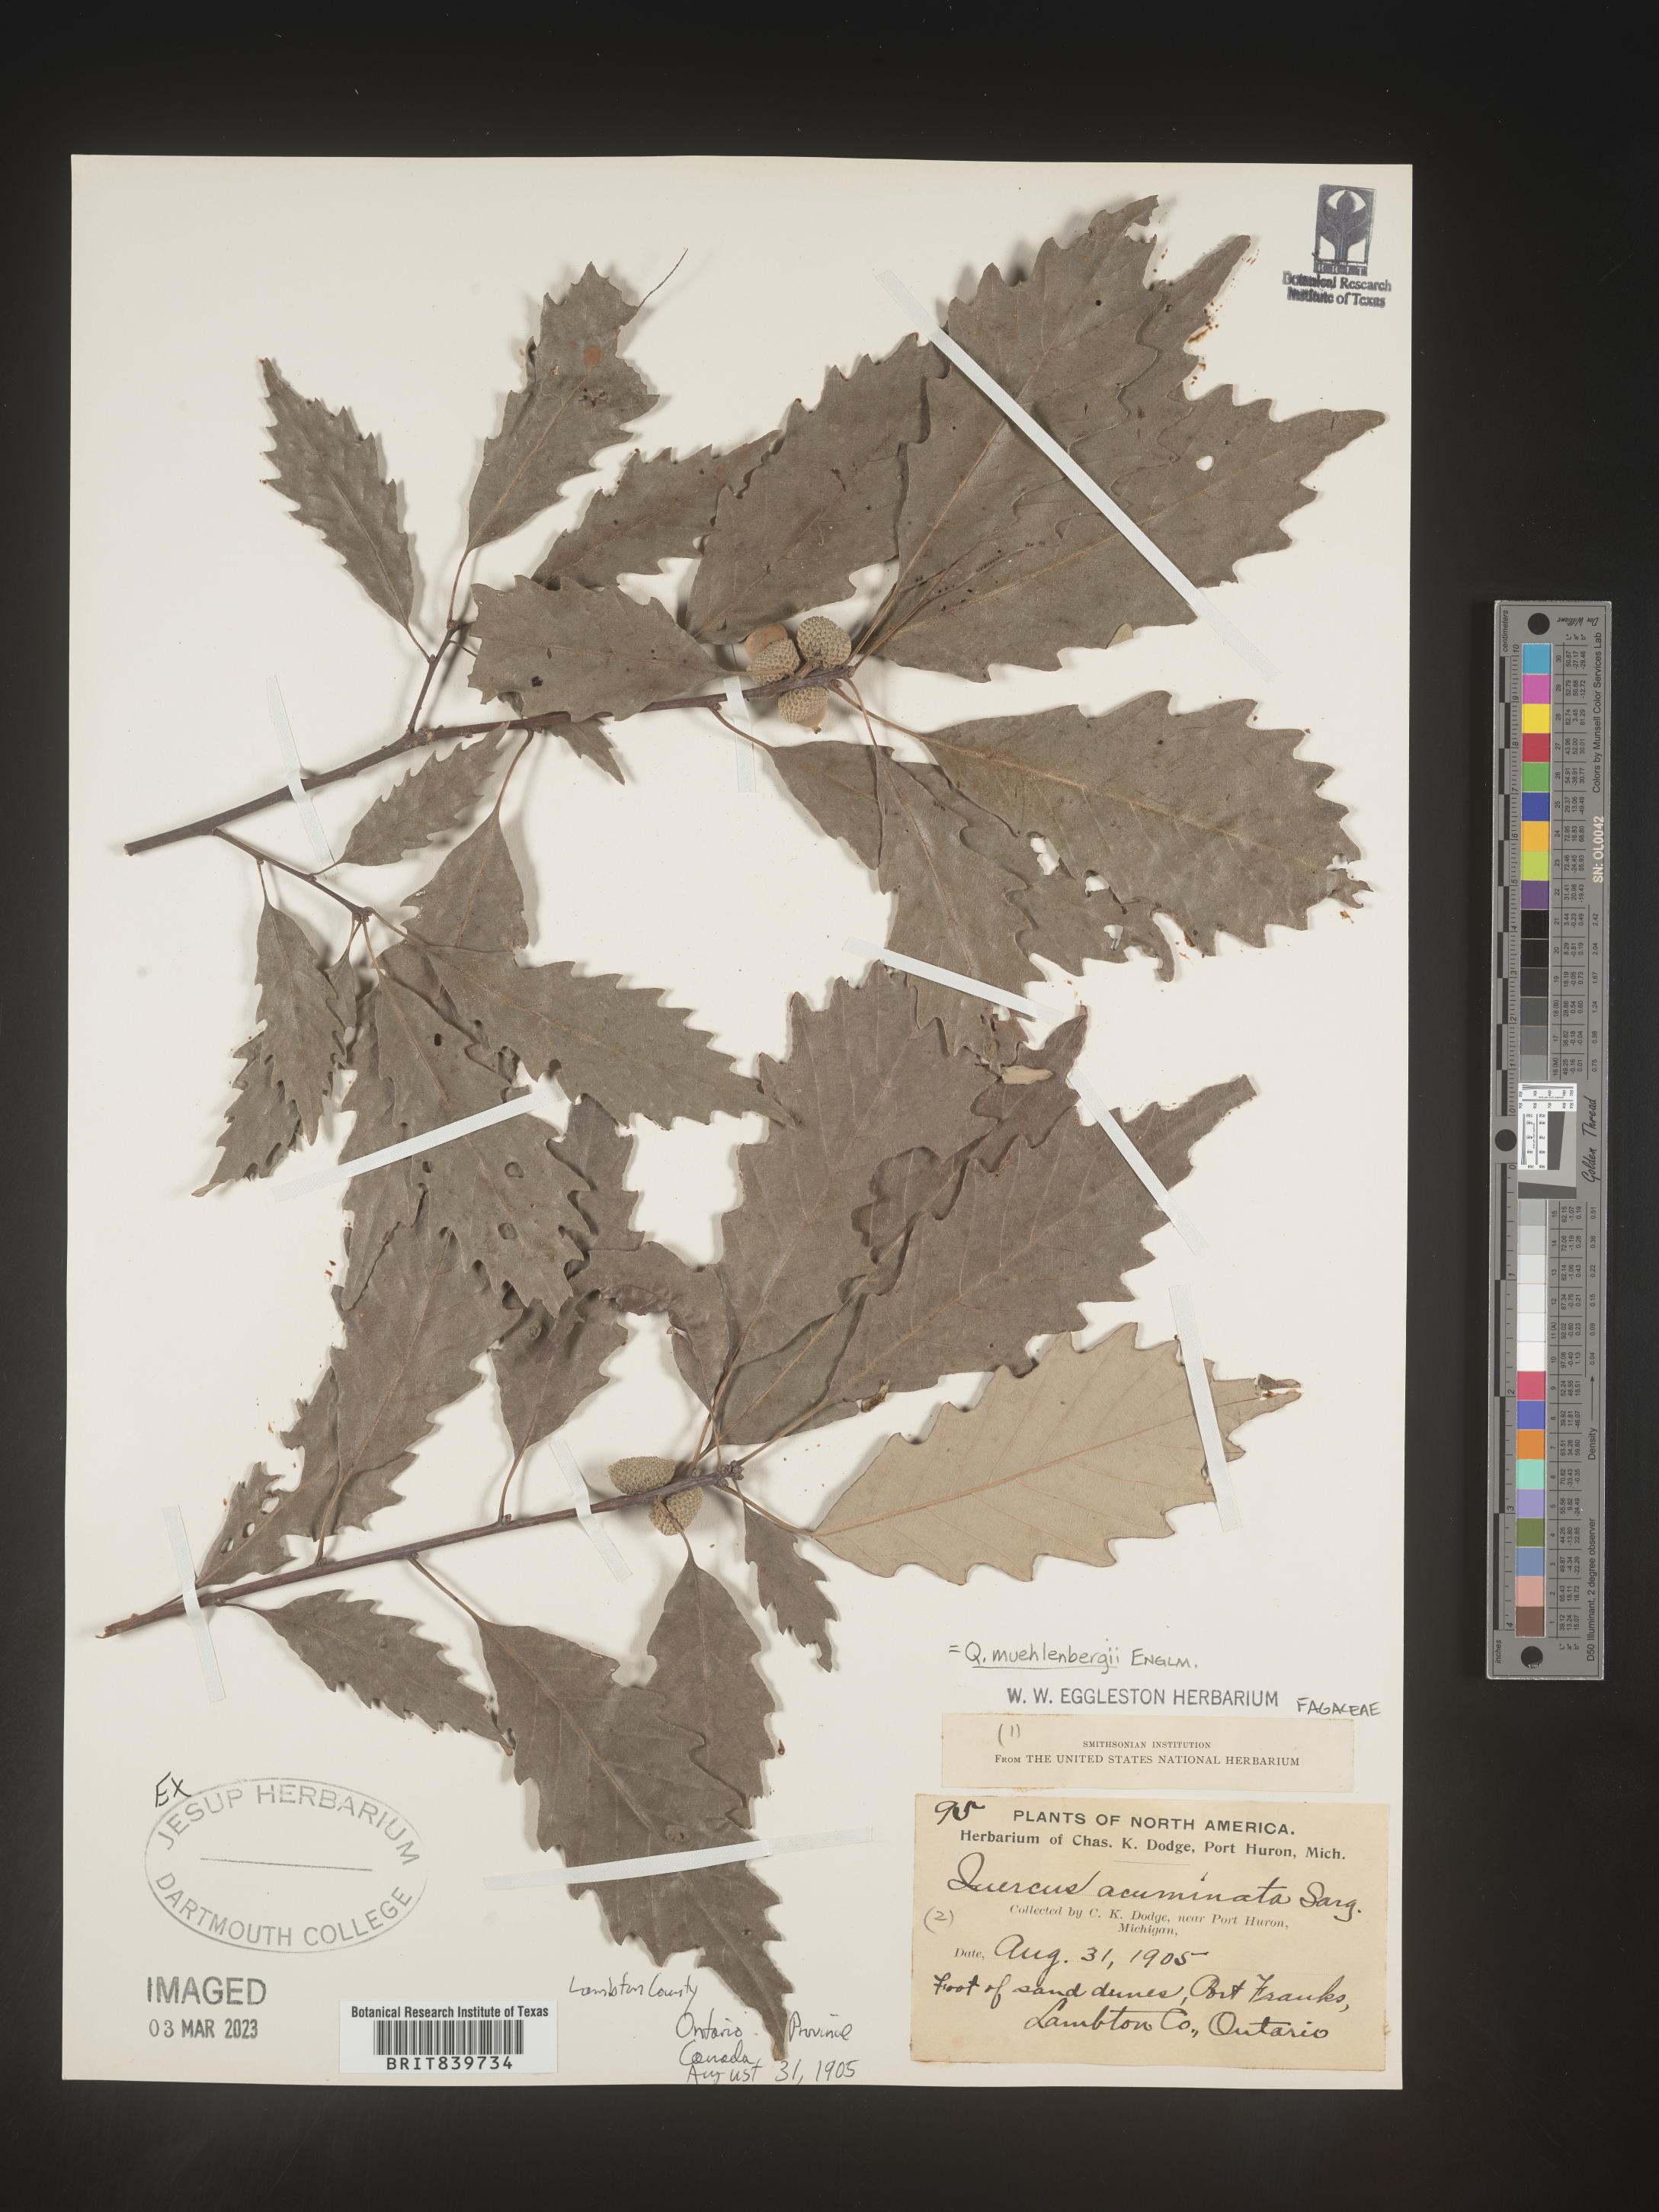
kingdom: Plantae
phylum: Tracheophyta
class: Magnoliopsida
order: Fagales
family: Fagaceae
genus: Quercus
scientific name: Quercus muehlenbergii
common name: Chinkapin oak
